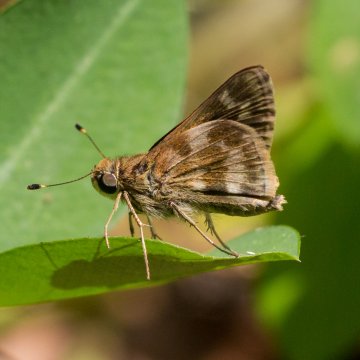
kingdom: Animalia
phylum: Arthropoda
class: Insecta
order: Lepidoptera
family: Hesperiidae
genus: Pompeius
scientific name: Pompeius
